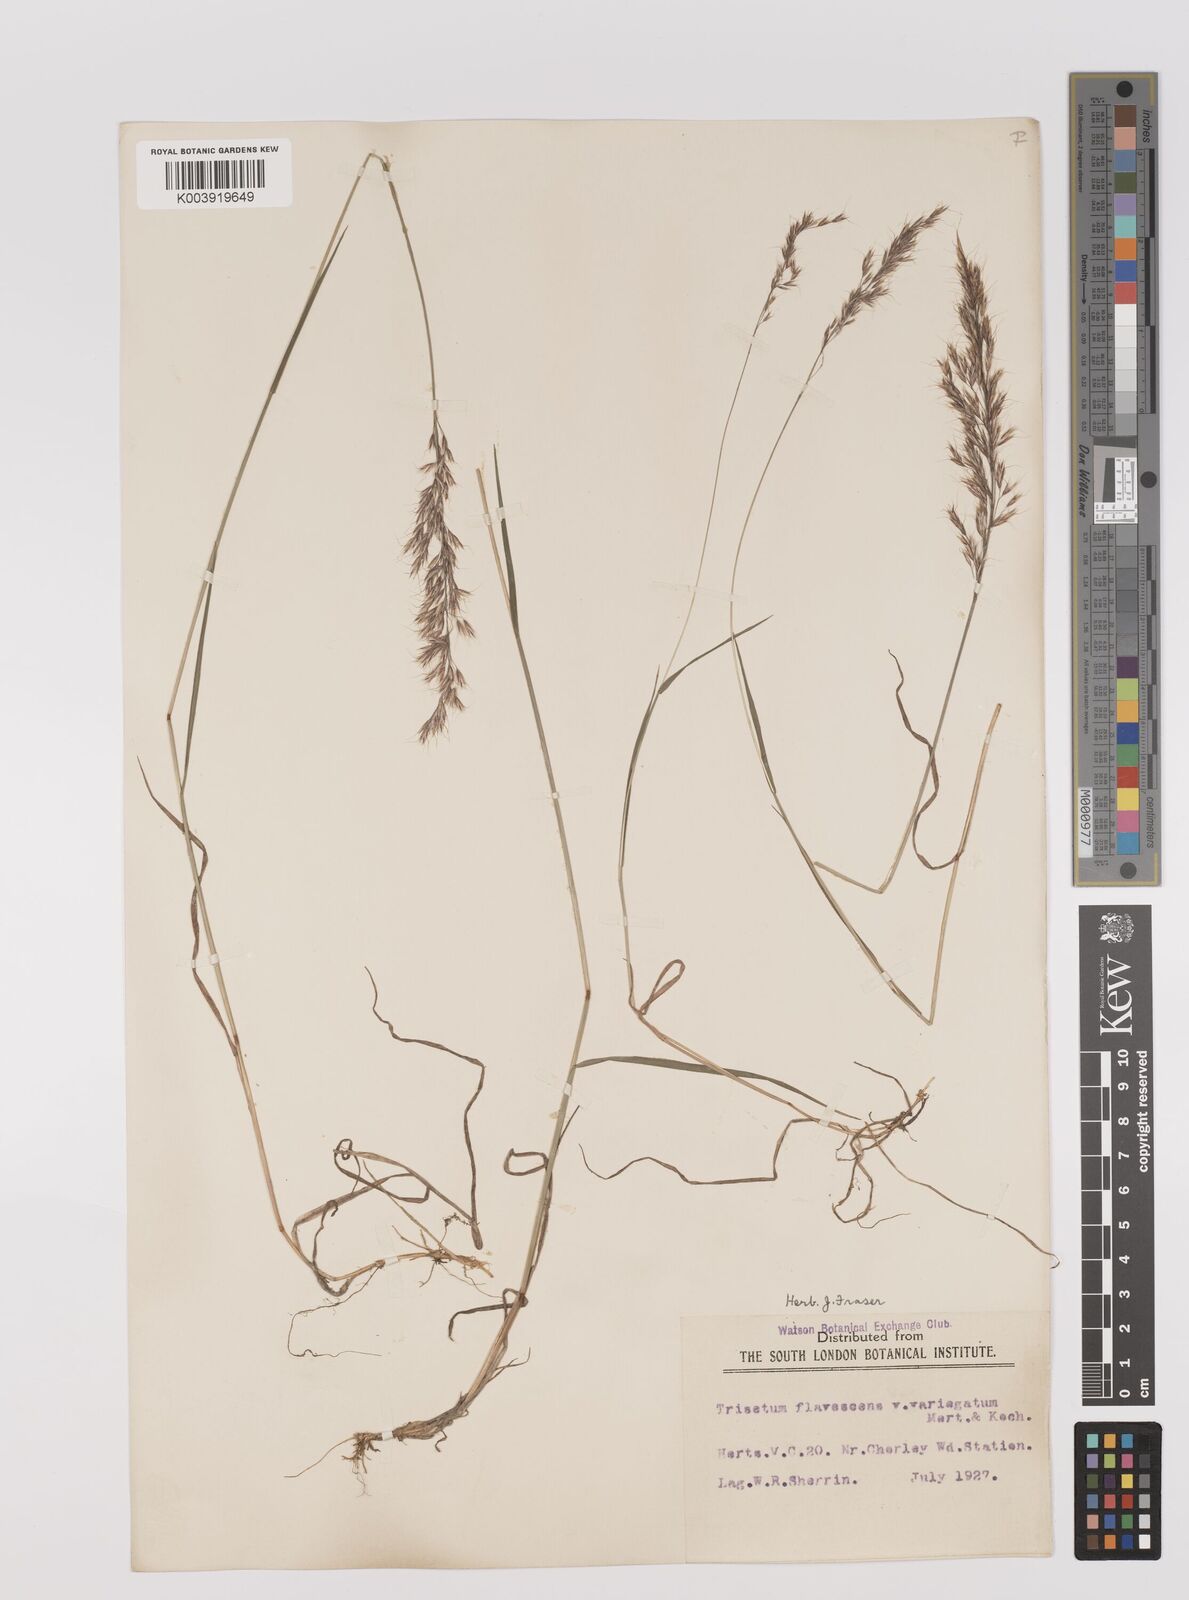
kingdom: Plantae
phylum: Tracheophyta
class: Liliopsida
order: Poales
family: Poaceae
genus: Trisetum
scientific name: Trisetum flavescens
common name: Yellow oat-grass
